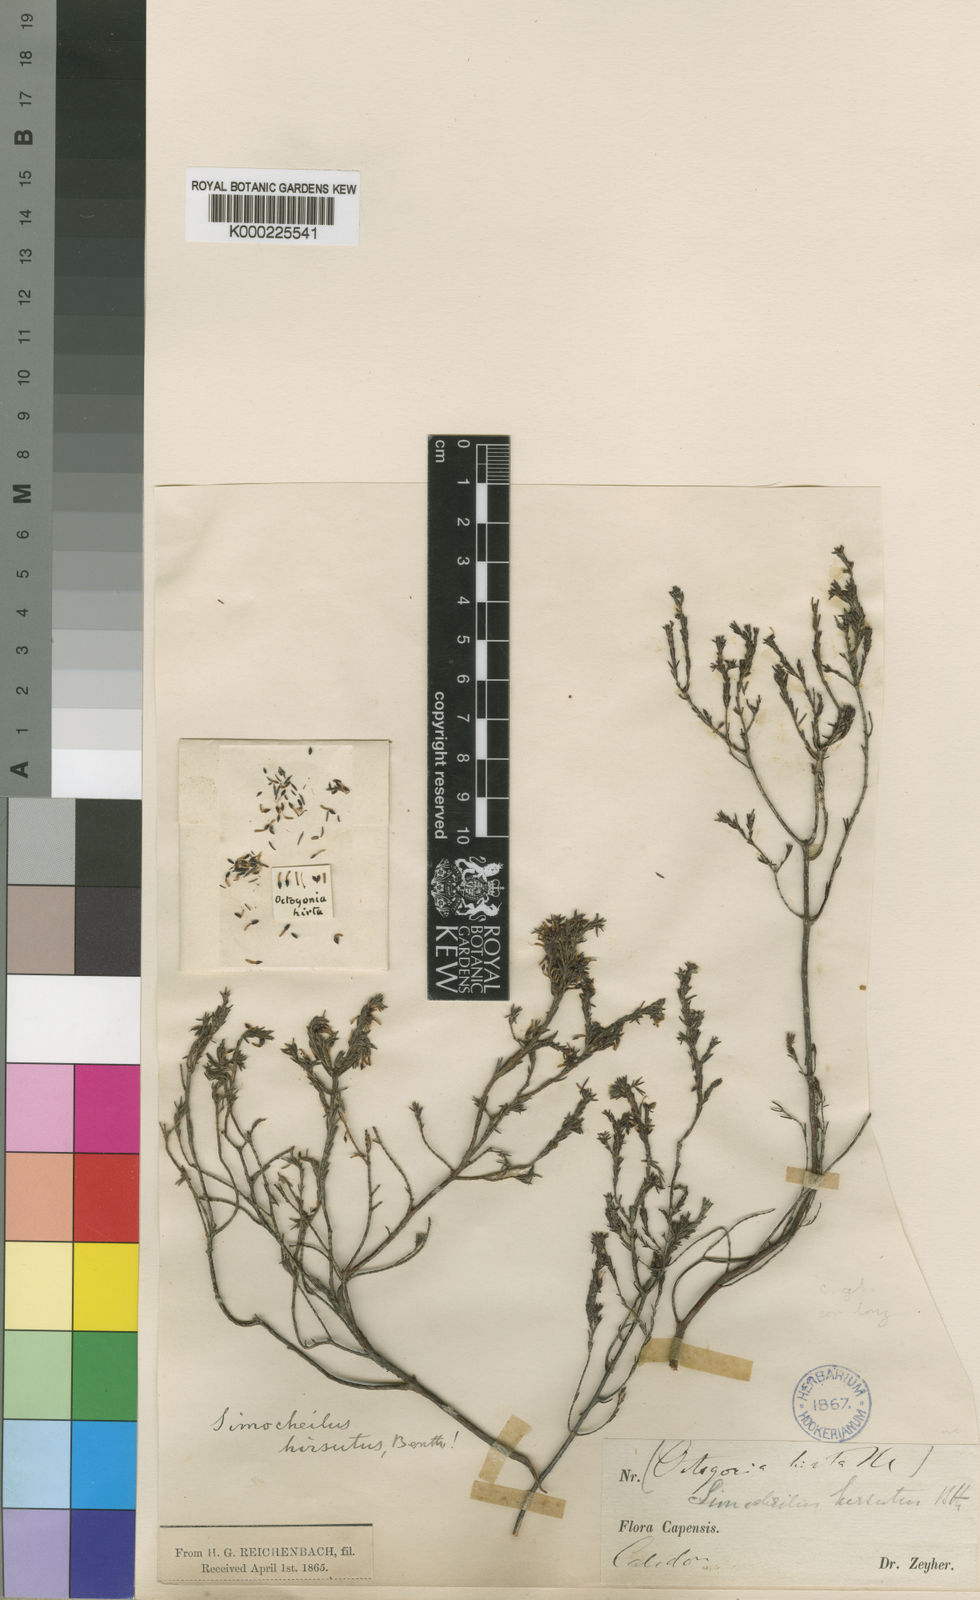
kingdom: Plantae
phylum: Tracheophyta
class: Magnoliopsida
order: Ericales
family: Ericaceae
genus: Erica
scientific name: Erica glabella
